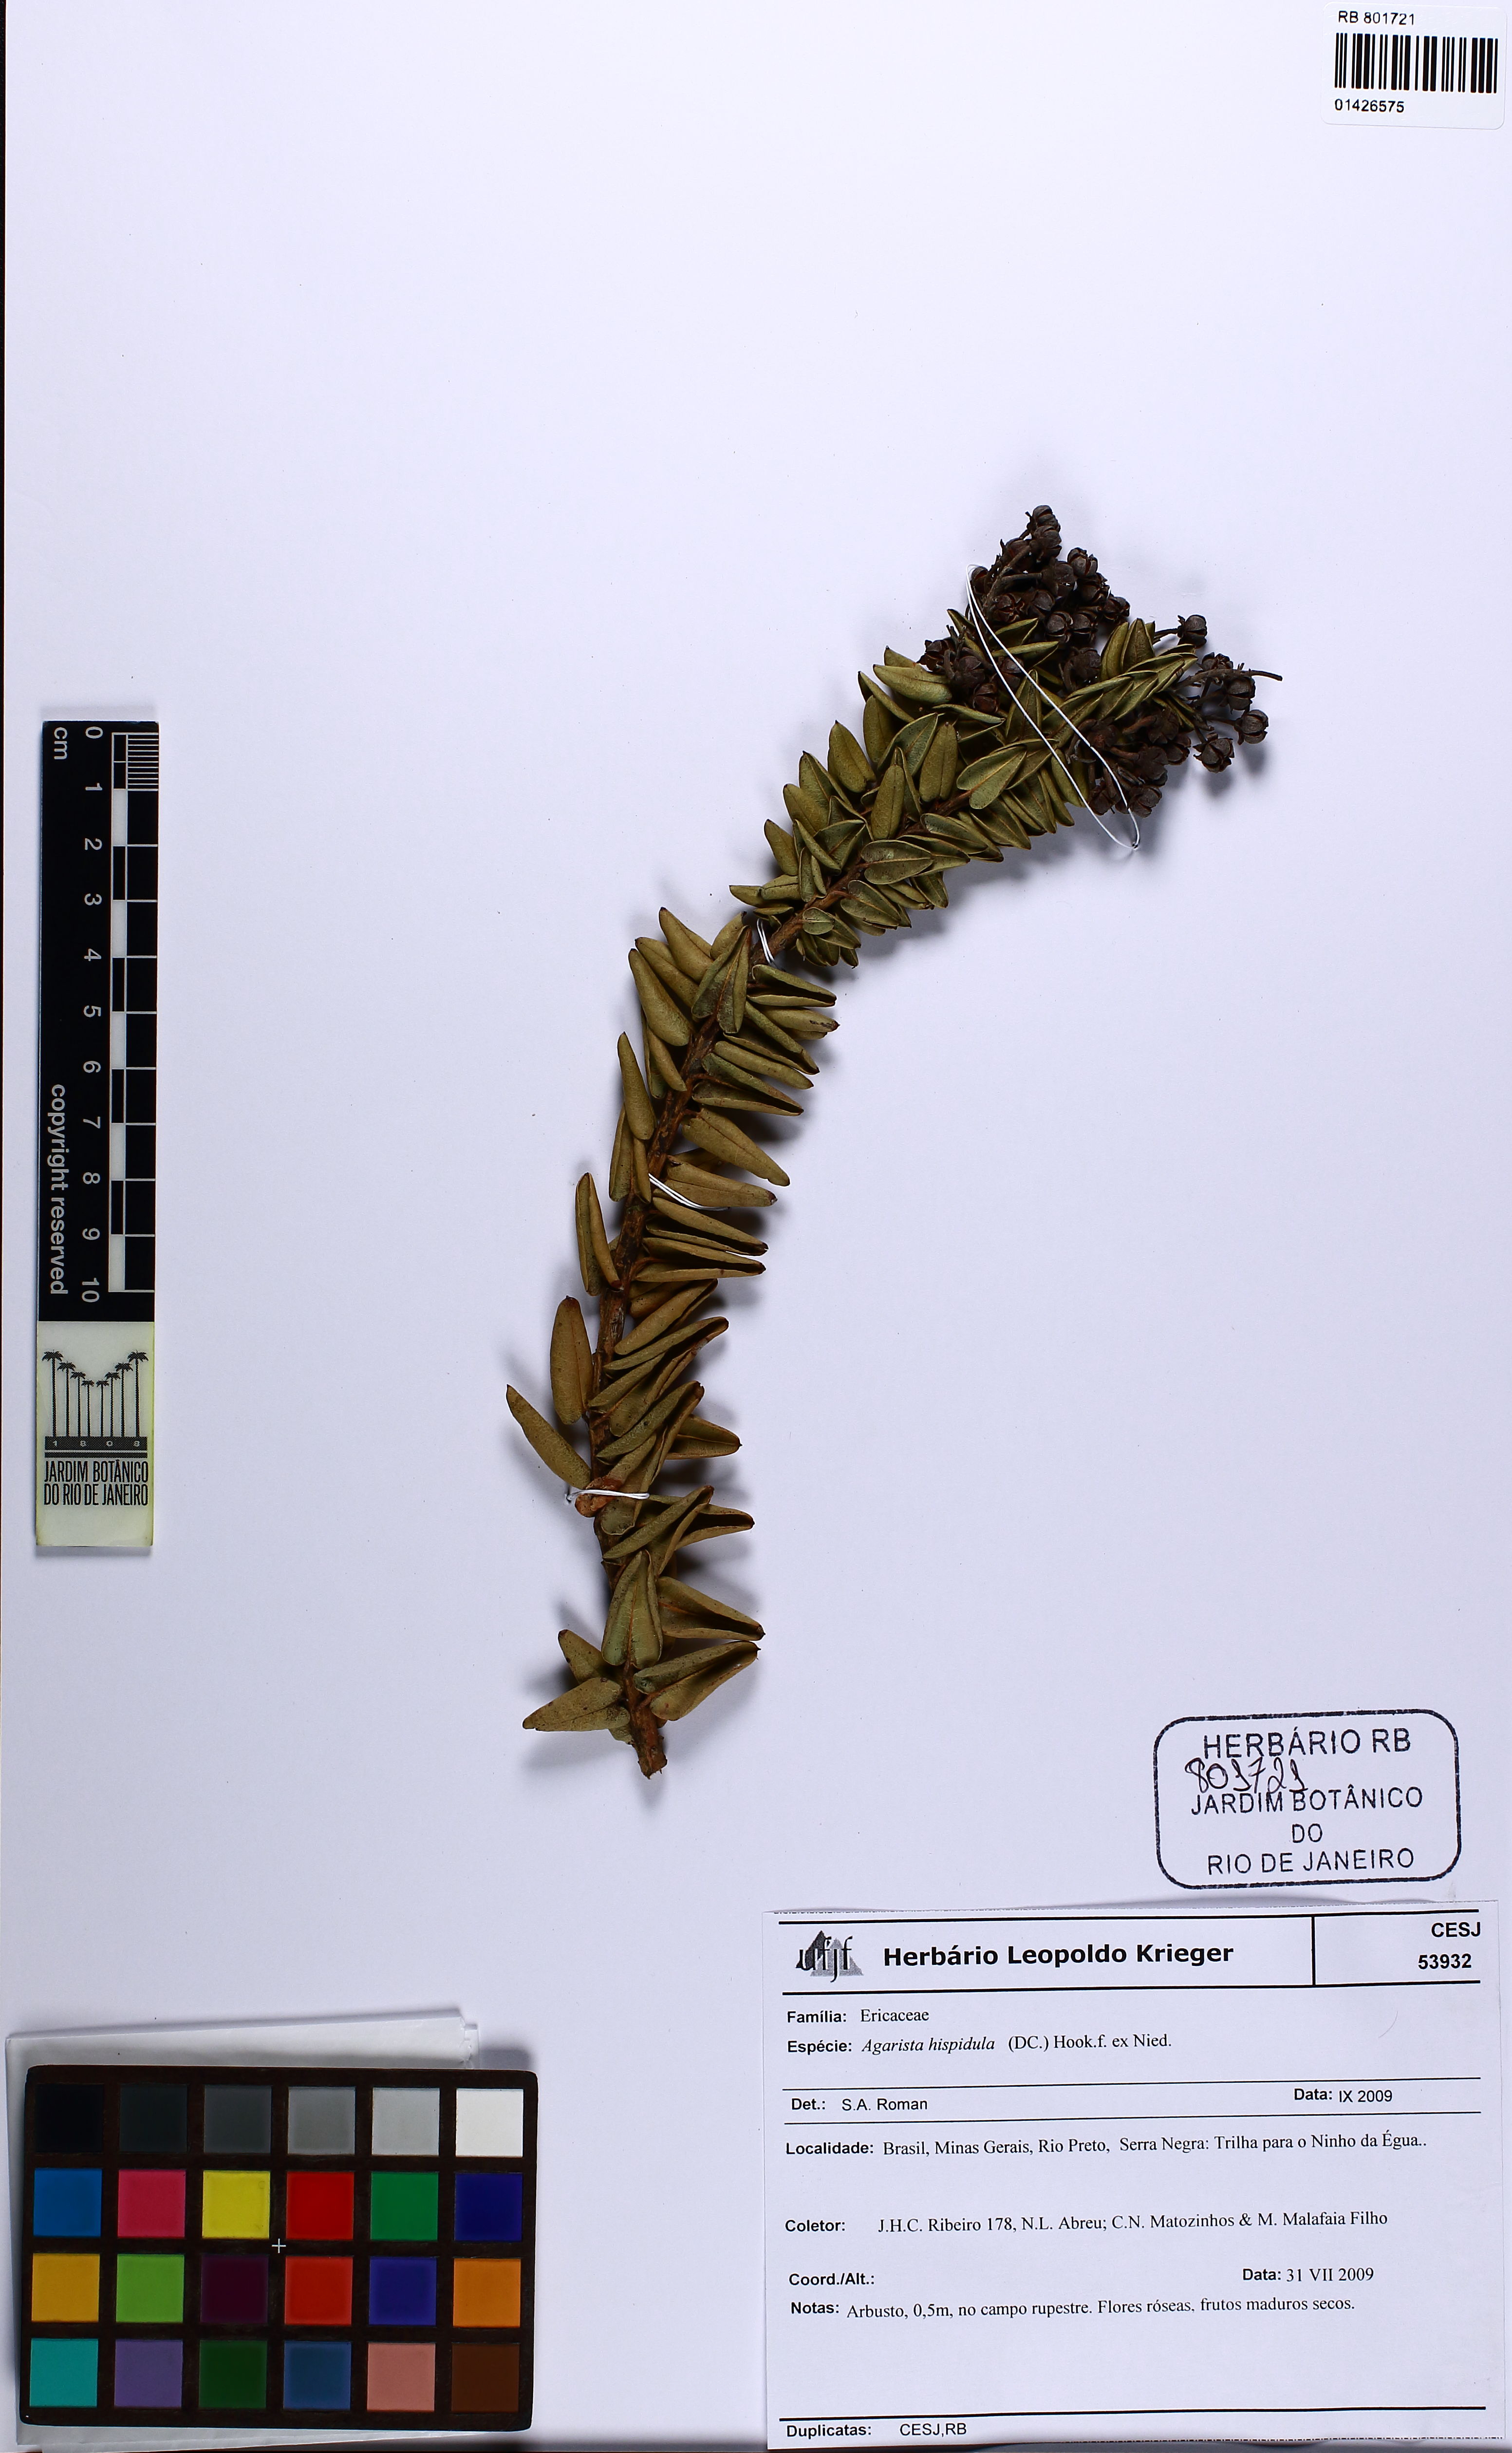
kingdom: Plantae
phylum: Tracheophyta
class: Magnoliopsida
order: Ericales
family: Ericaceae
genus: Agarista
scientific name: Agarista hispidula
